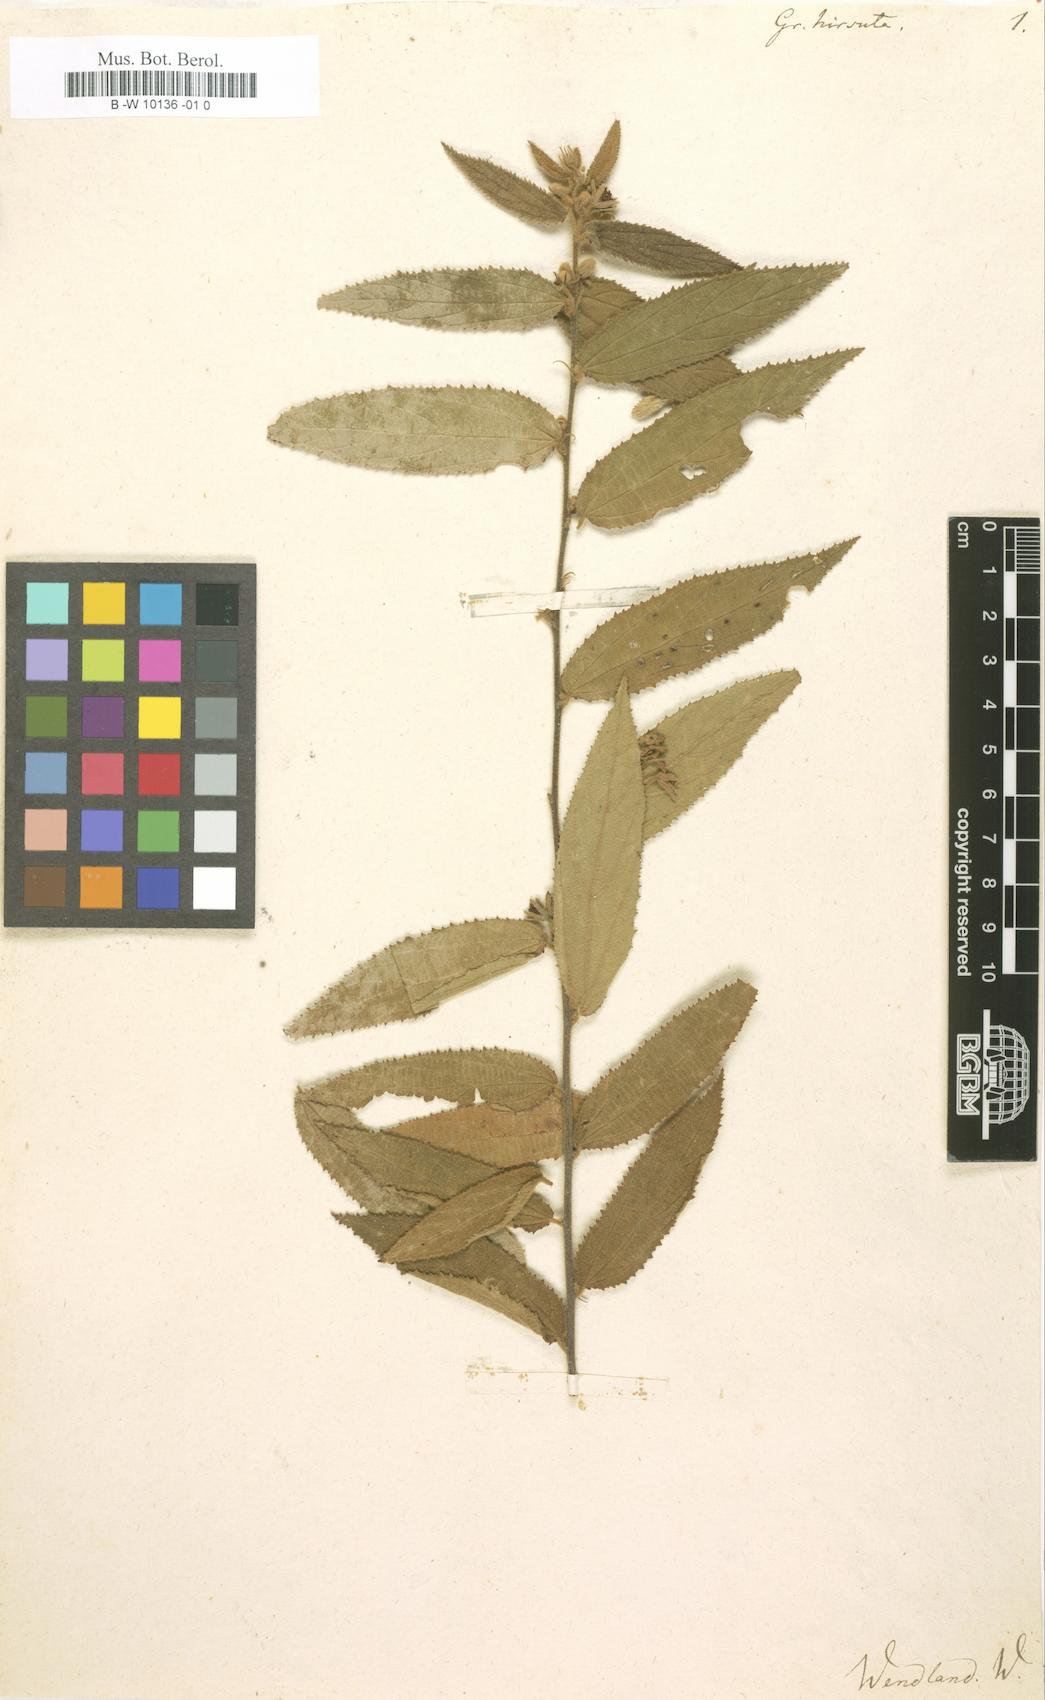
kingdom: Plantae
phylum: Tracheophyta
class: Magnoliopsida
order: Malvales
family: Malvaceae
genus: Grewia
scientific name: Grewia hirsuta
